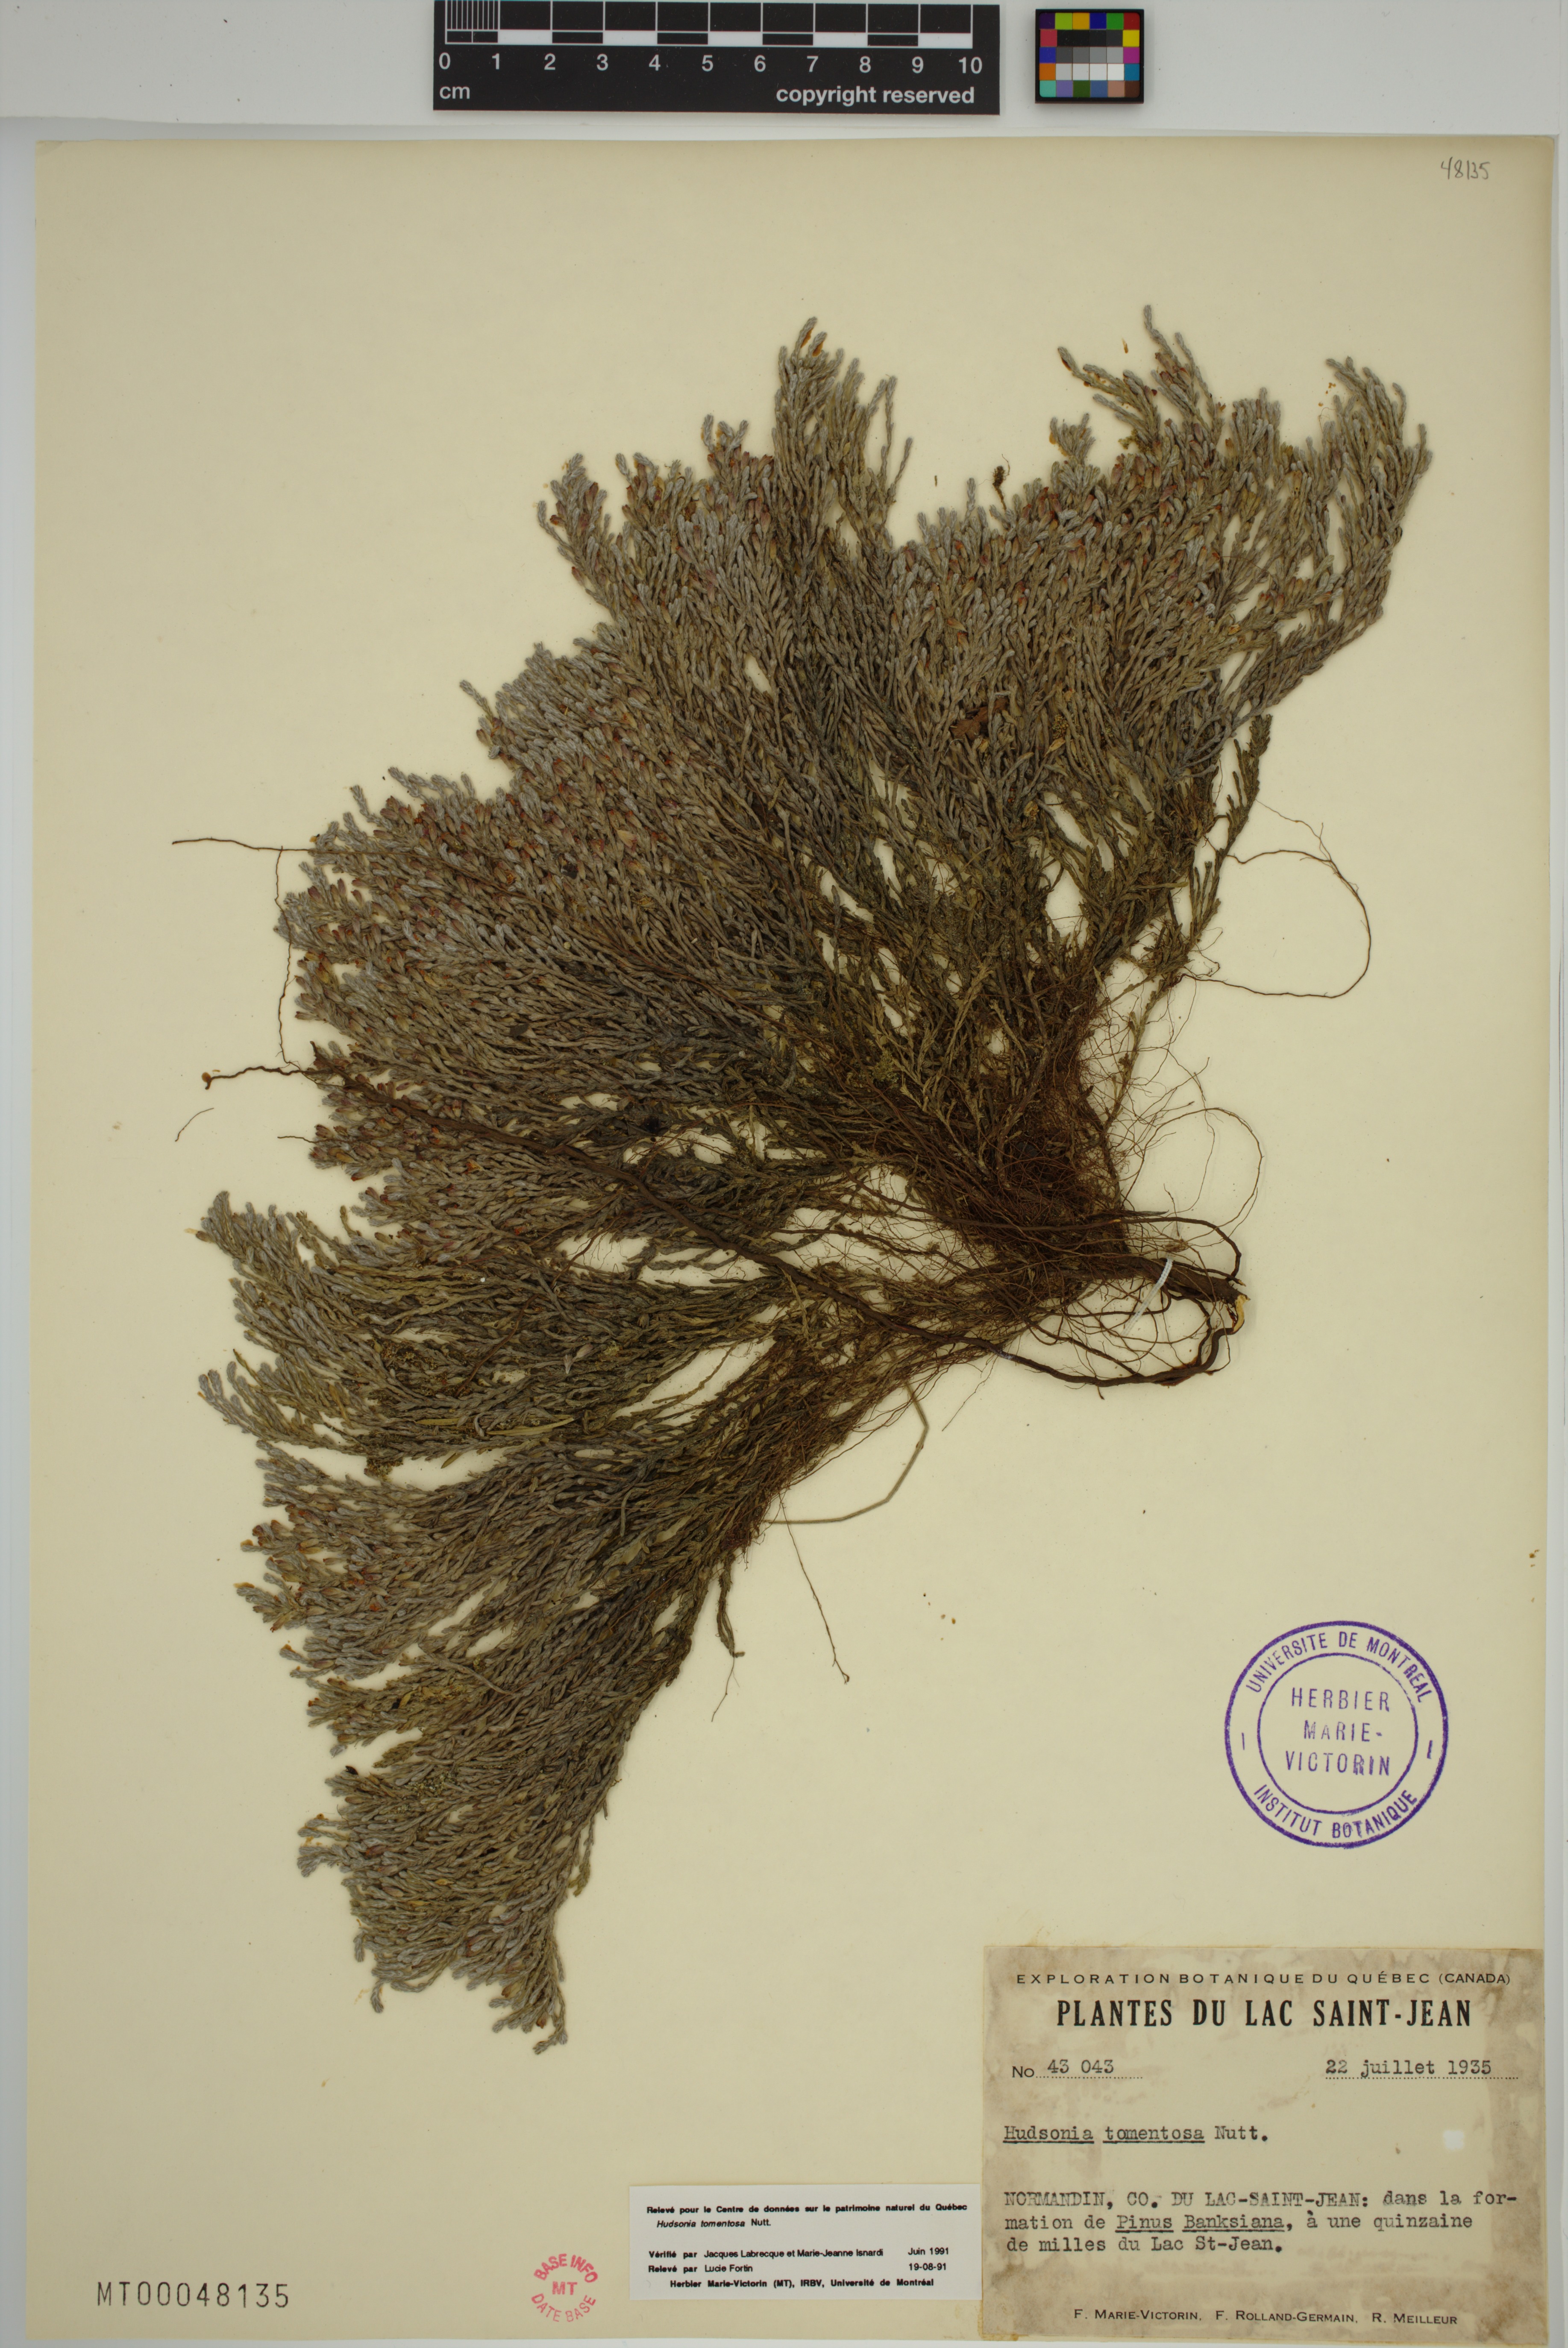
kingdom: Plantae
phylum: Tracheophyta
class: Magnoliopsida
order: Malvales
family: Cistaceae
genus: Hudsonia
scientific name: Hudsonia tomentosa
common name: Beach-heath
